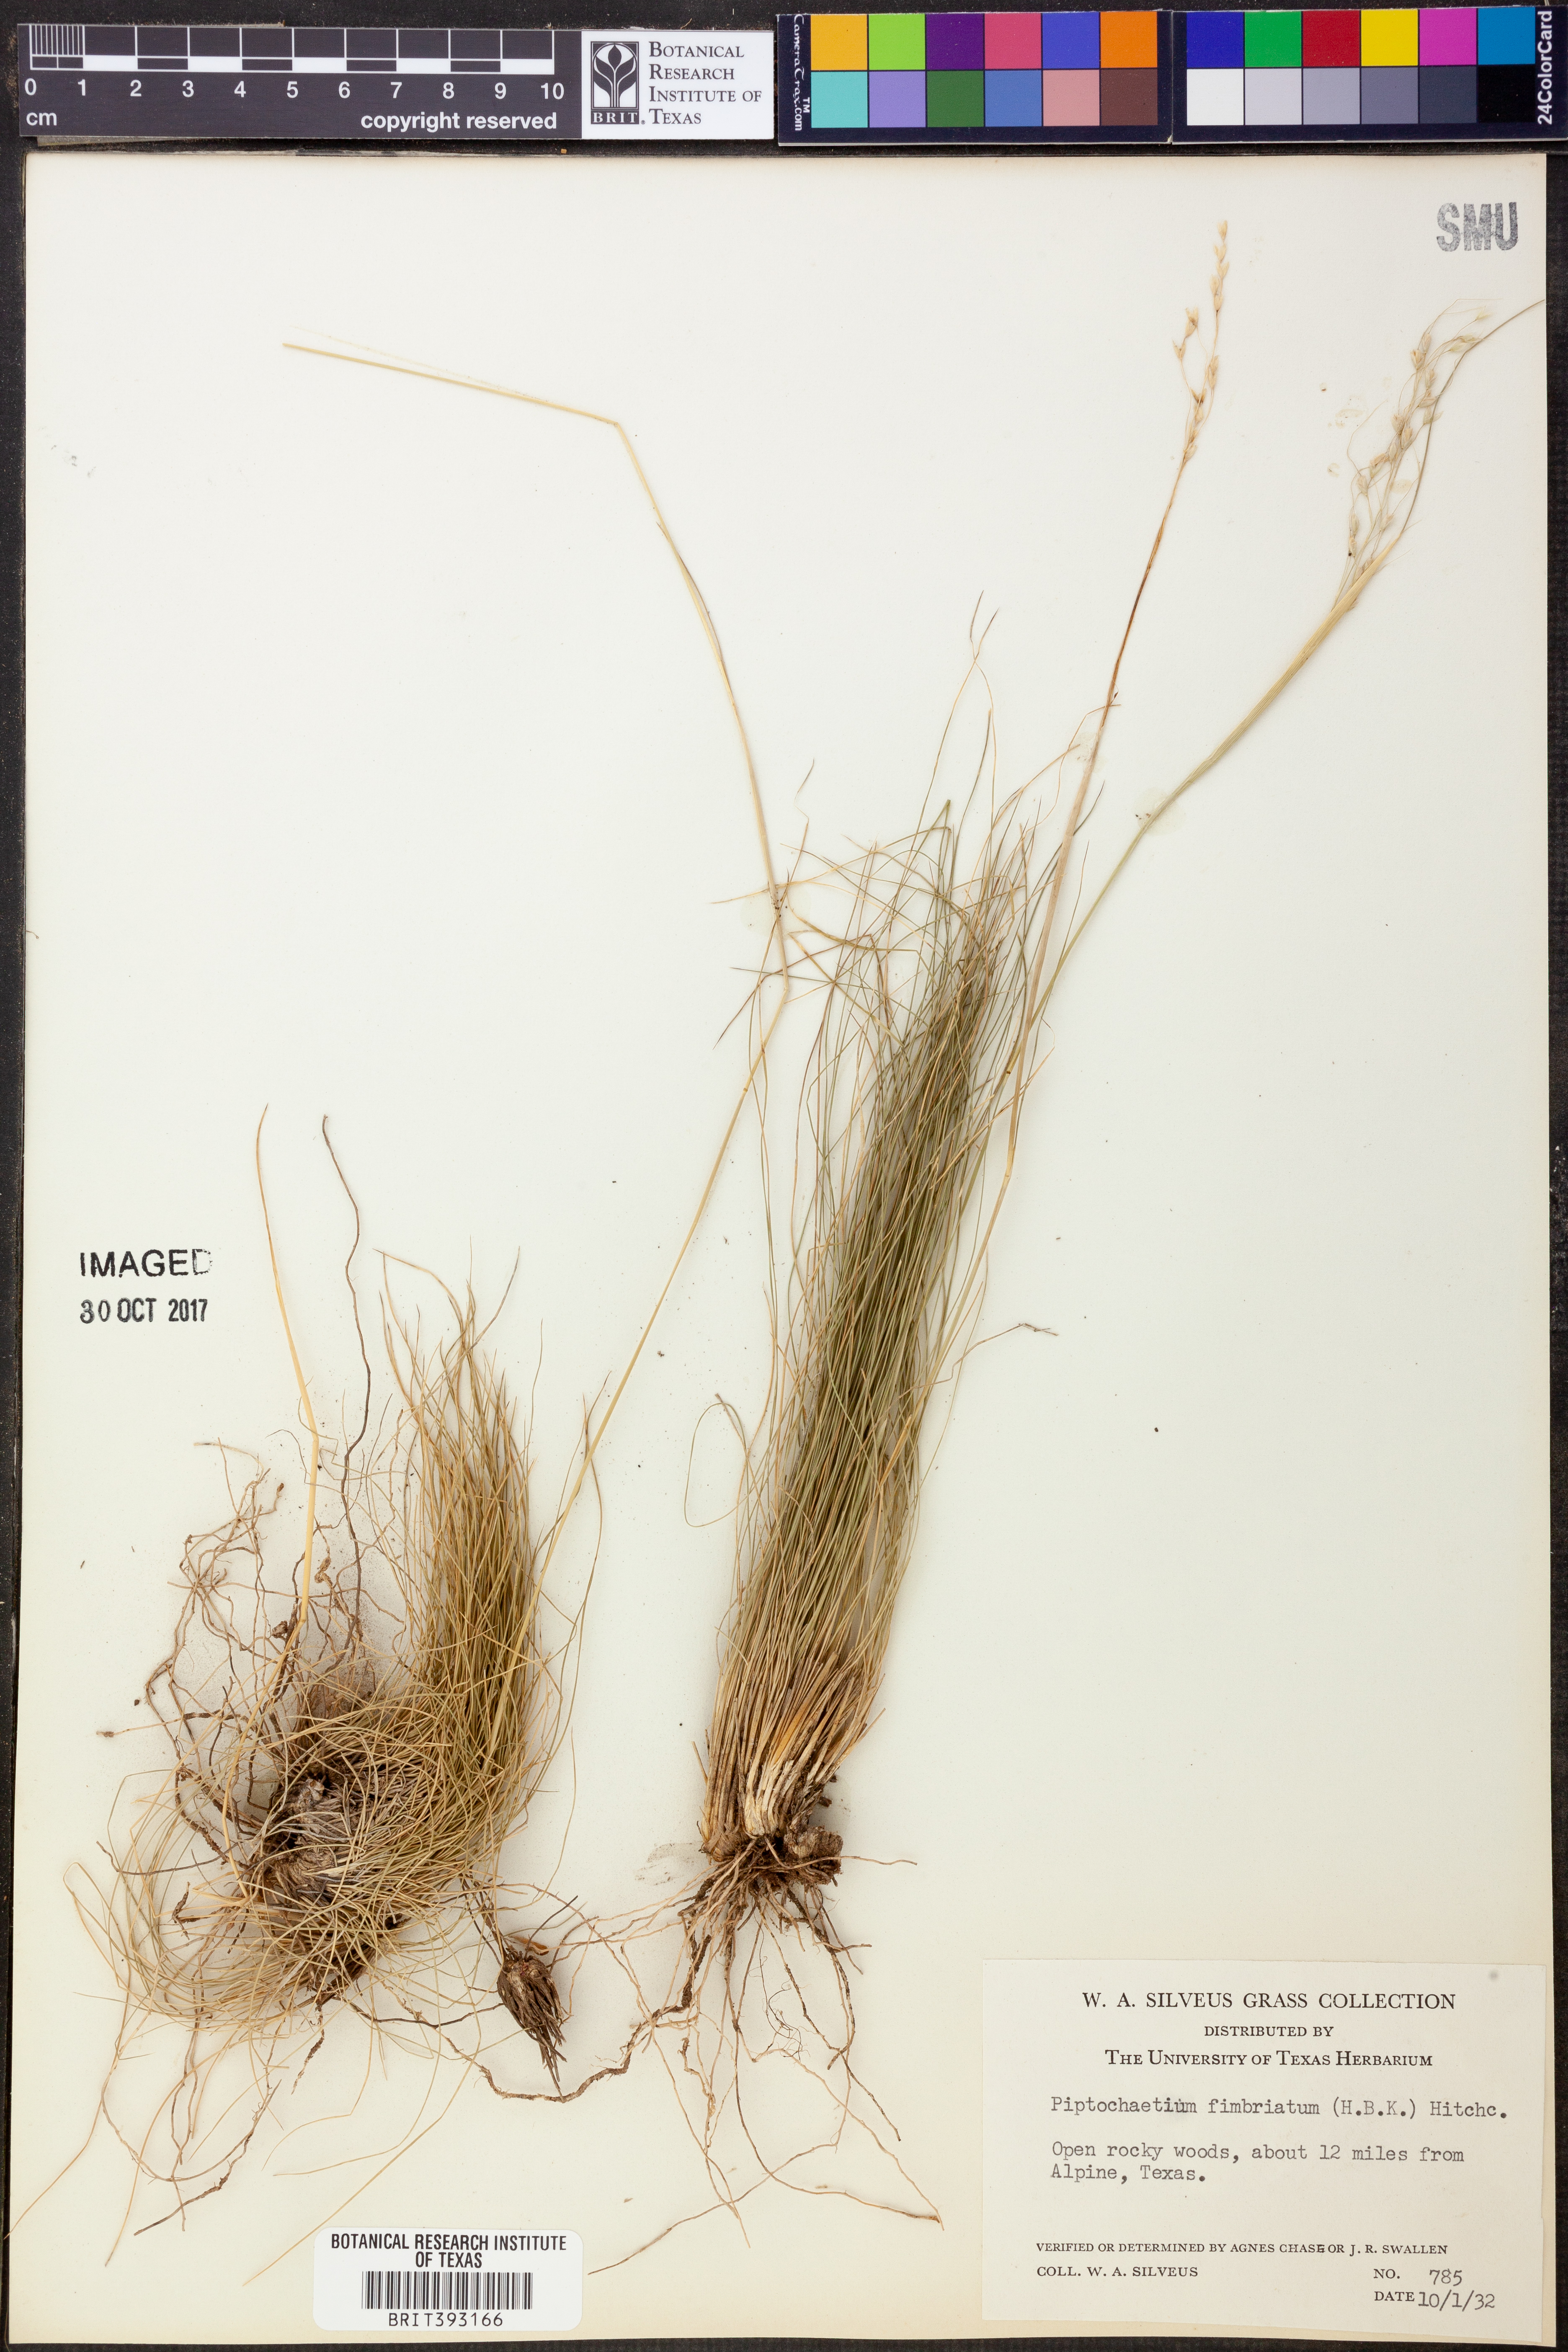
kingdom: Plantae
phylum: Tracheophyta
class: Liliopsida
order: Poales
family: Poaceae
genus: Piptochaetium
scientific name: Piptochaetium fimbriatum
